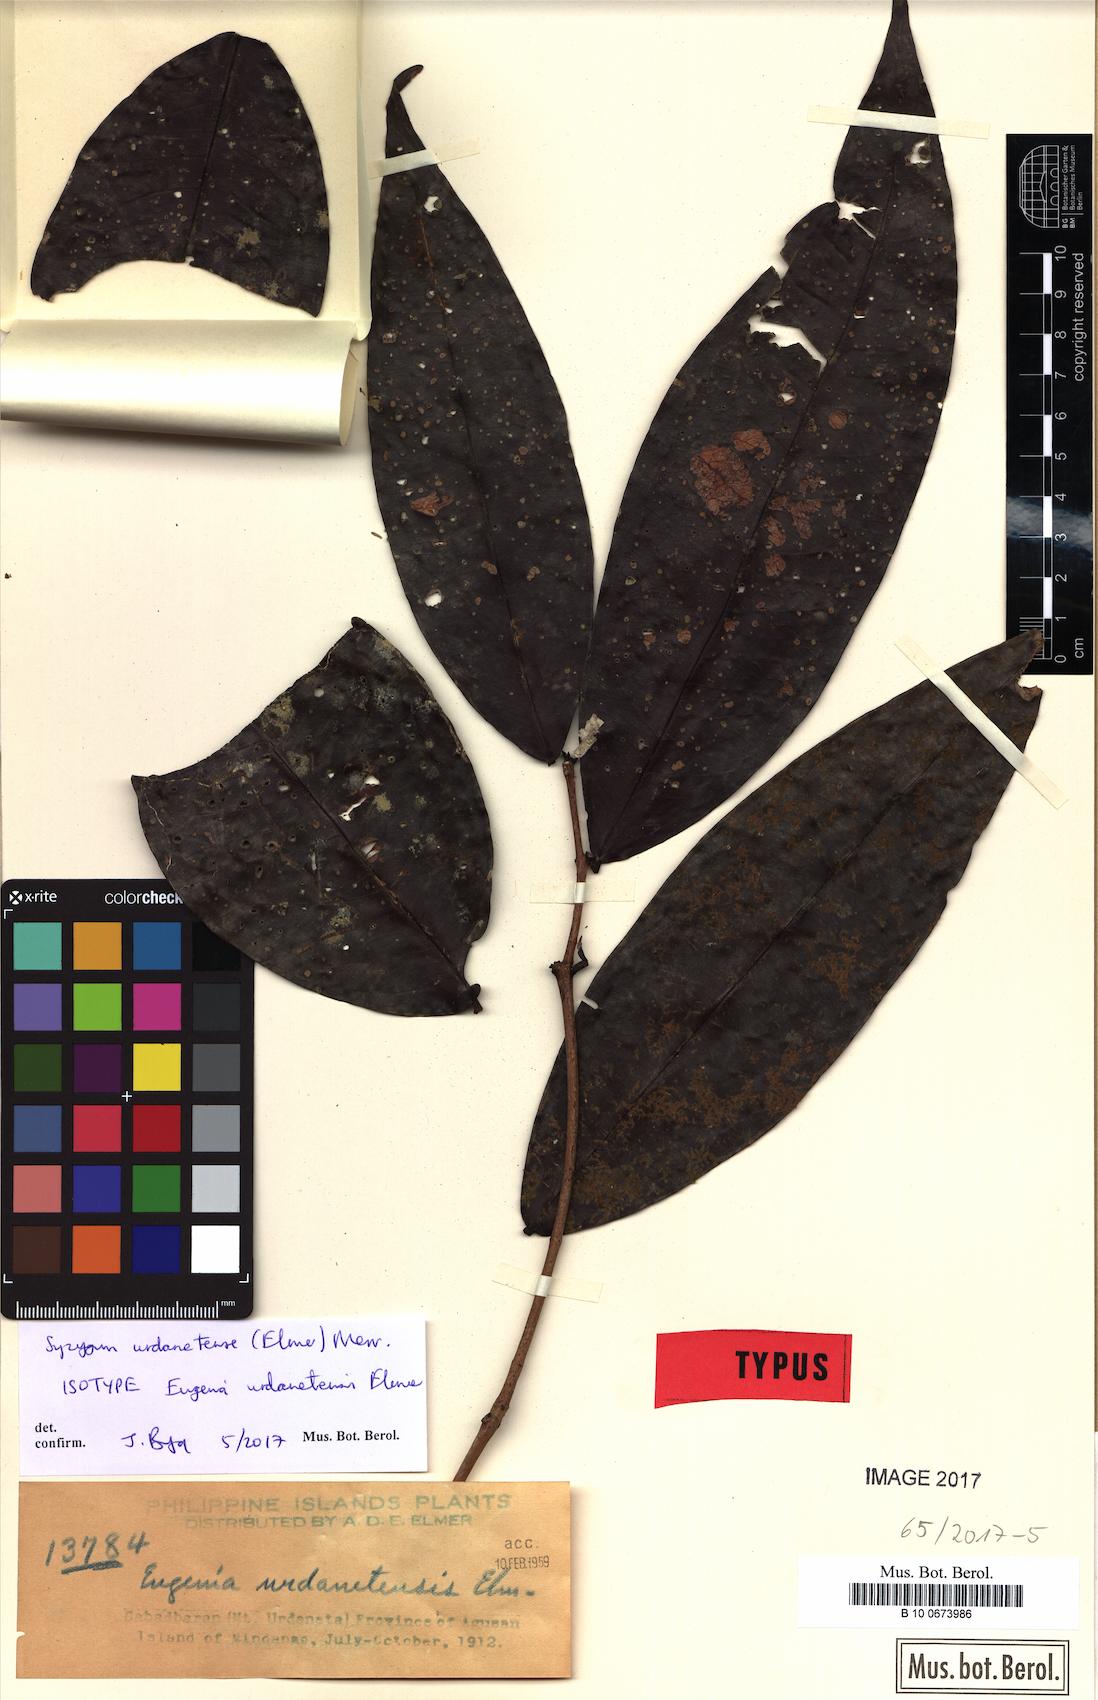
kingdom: Plantae
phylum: Tracheophyta
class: Magnoliopsida
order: Myrtales
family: Myrtaceae
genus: Syzygium
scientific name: Syzygium urdanetense
